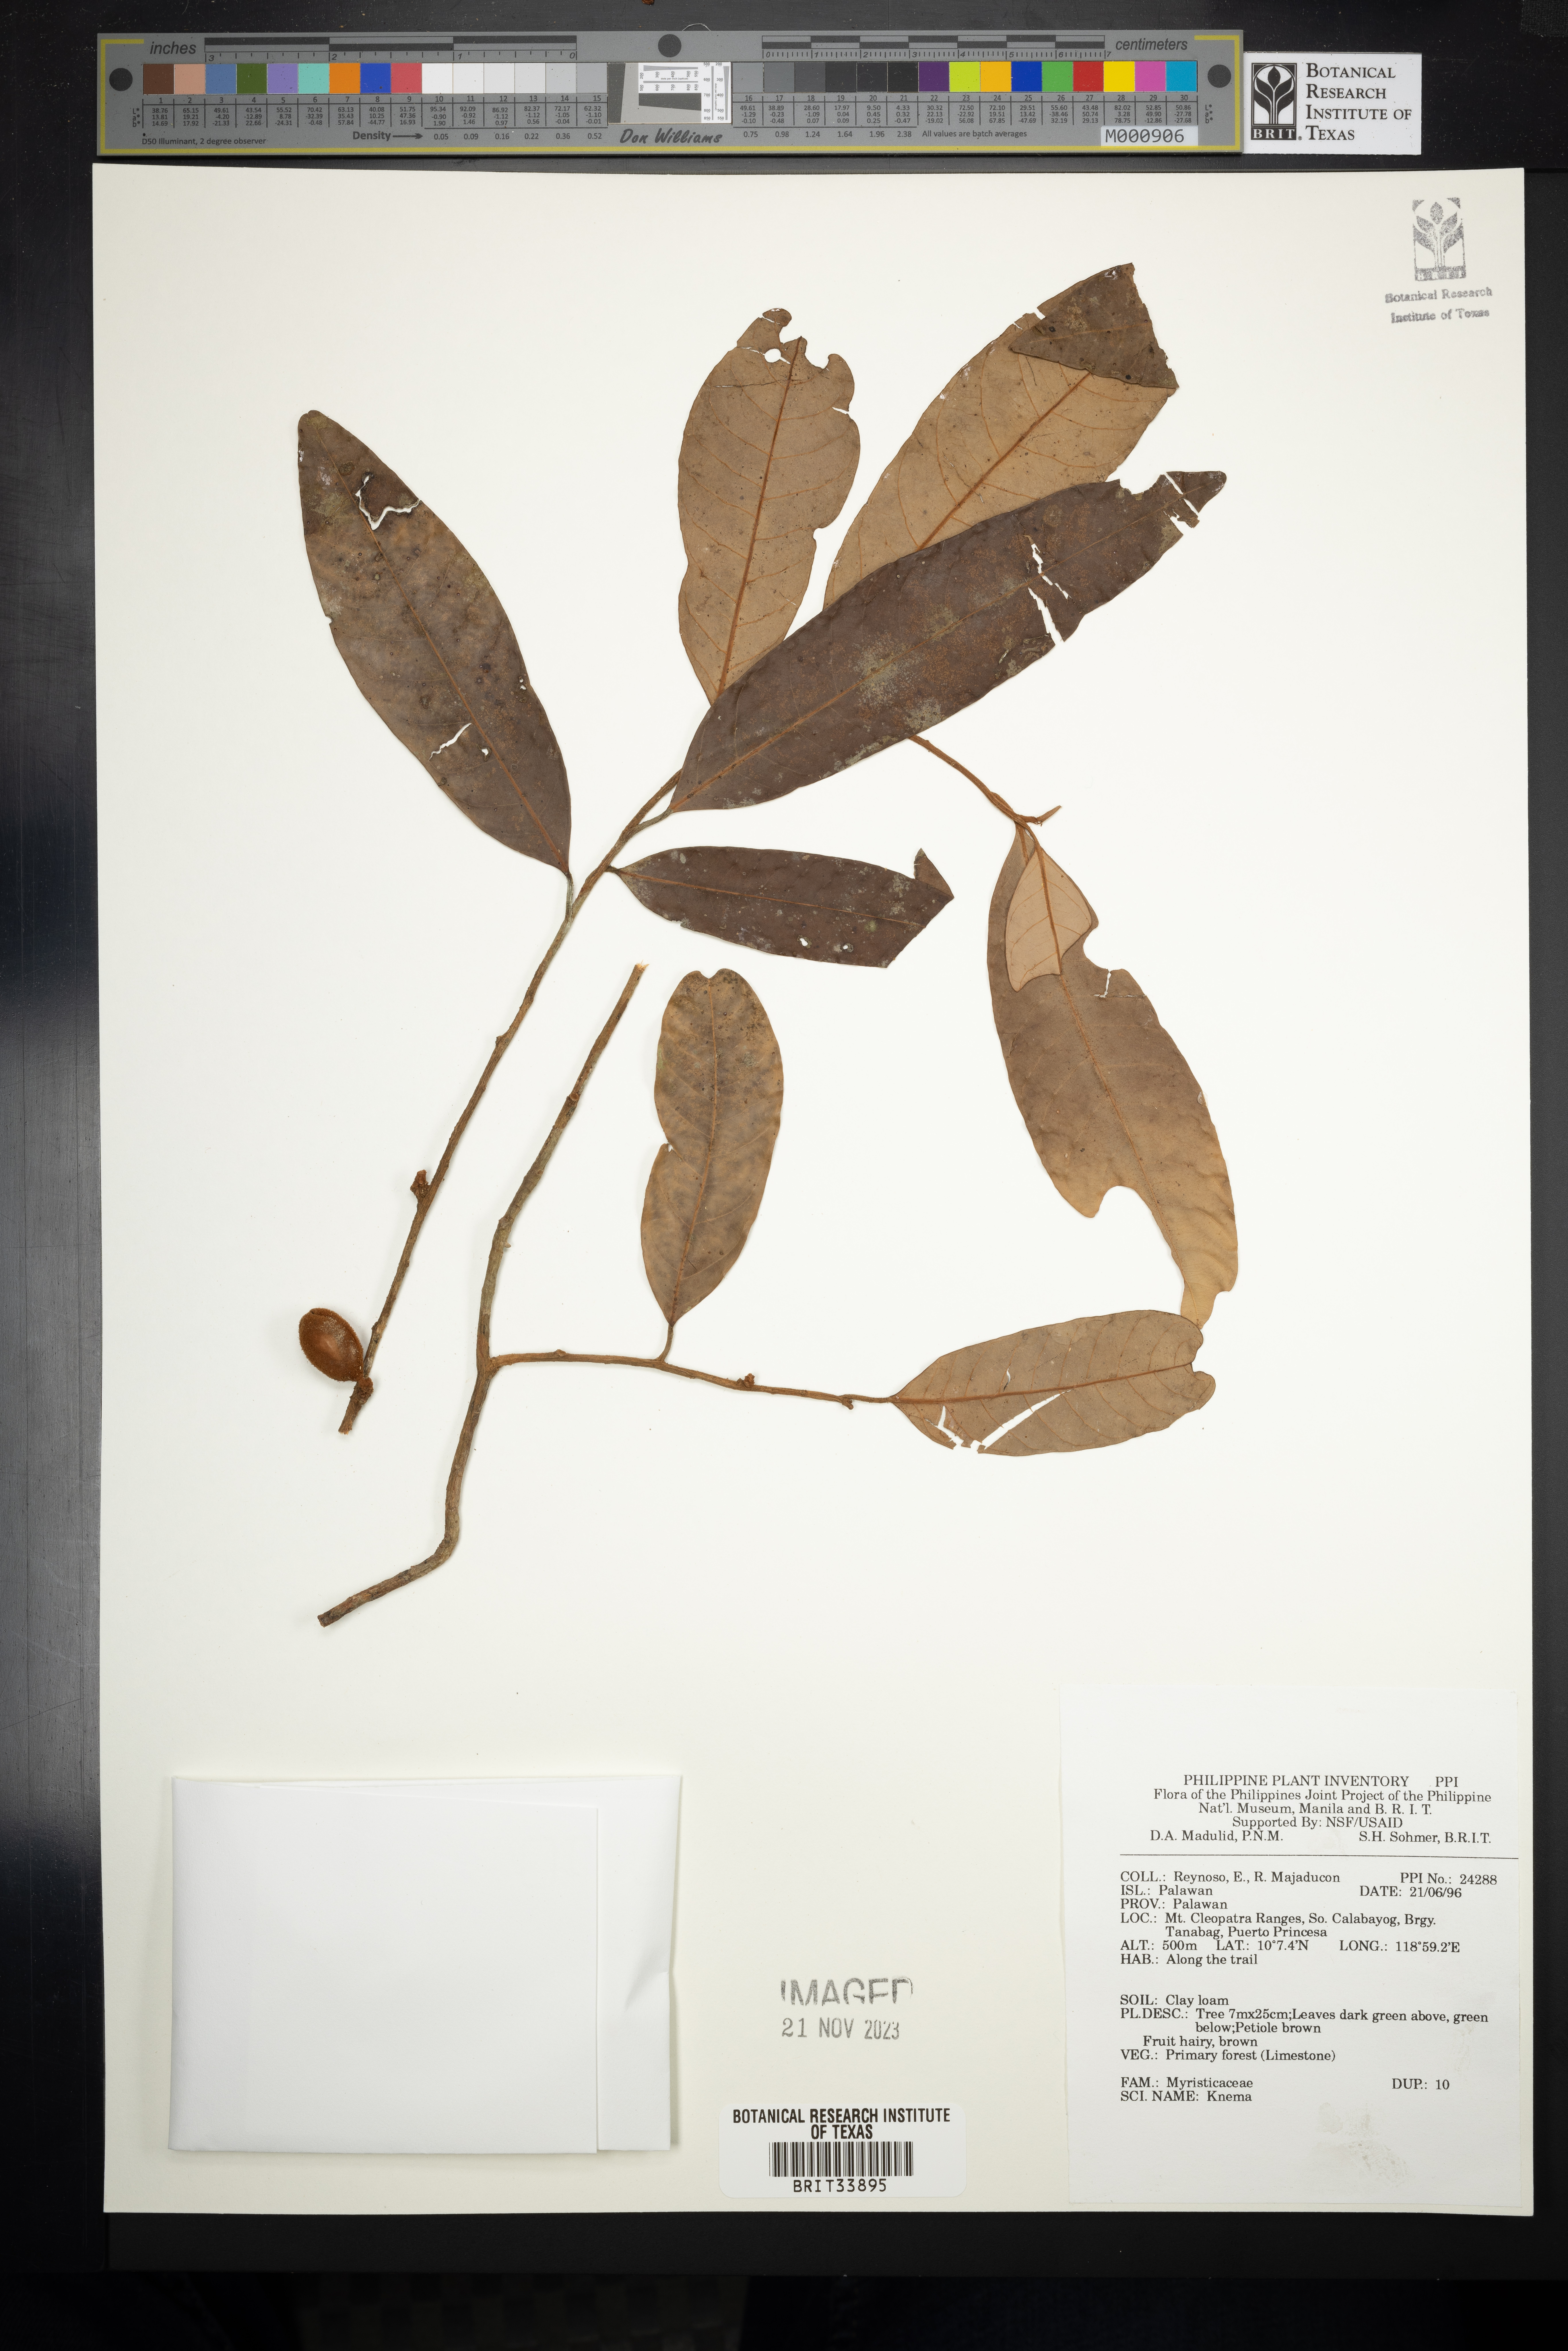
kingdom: Plantae
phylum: Tracheophyta
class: Magnoliopsida
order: Magnoliales
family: Myristicaceae
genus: Knema
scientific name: Knema
